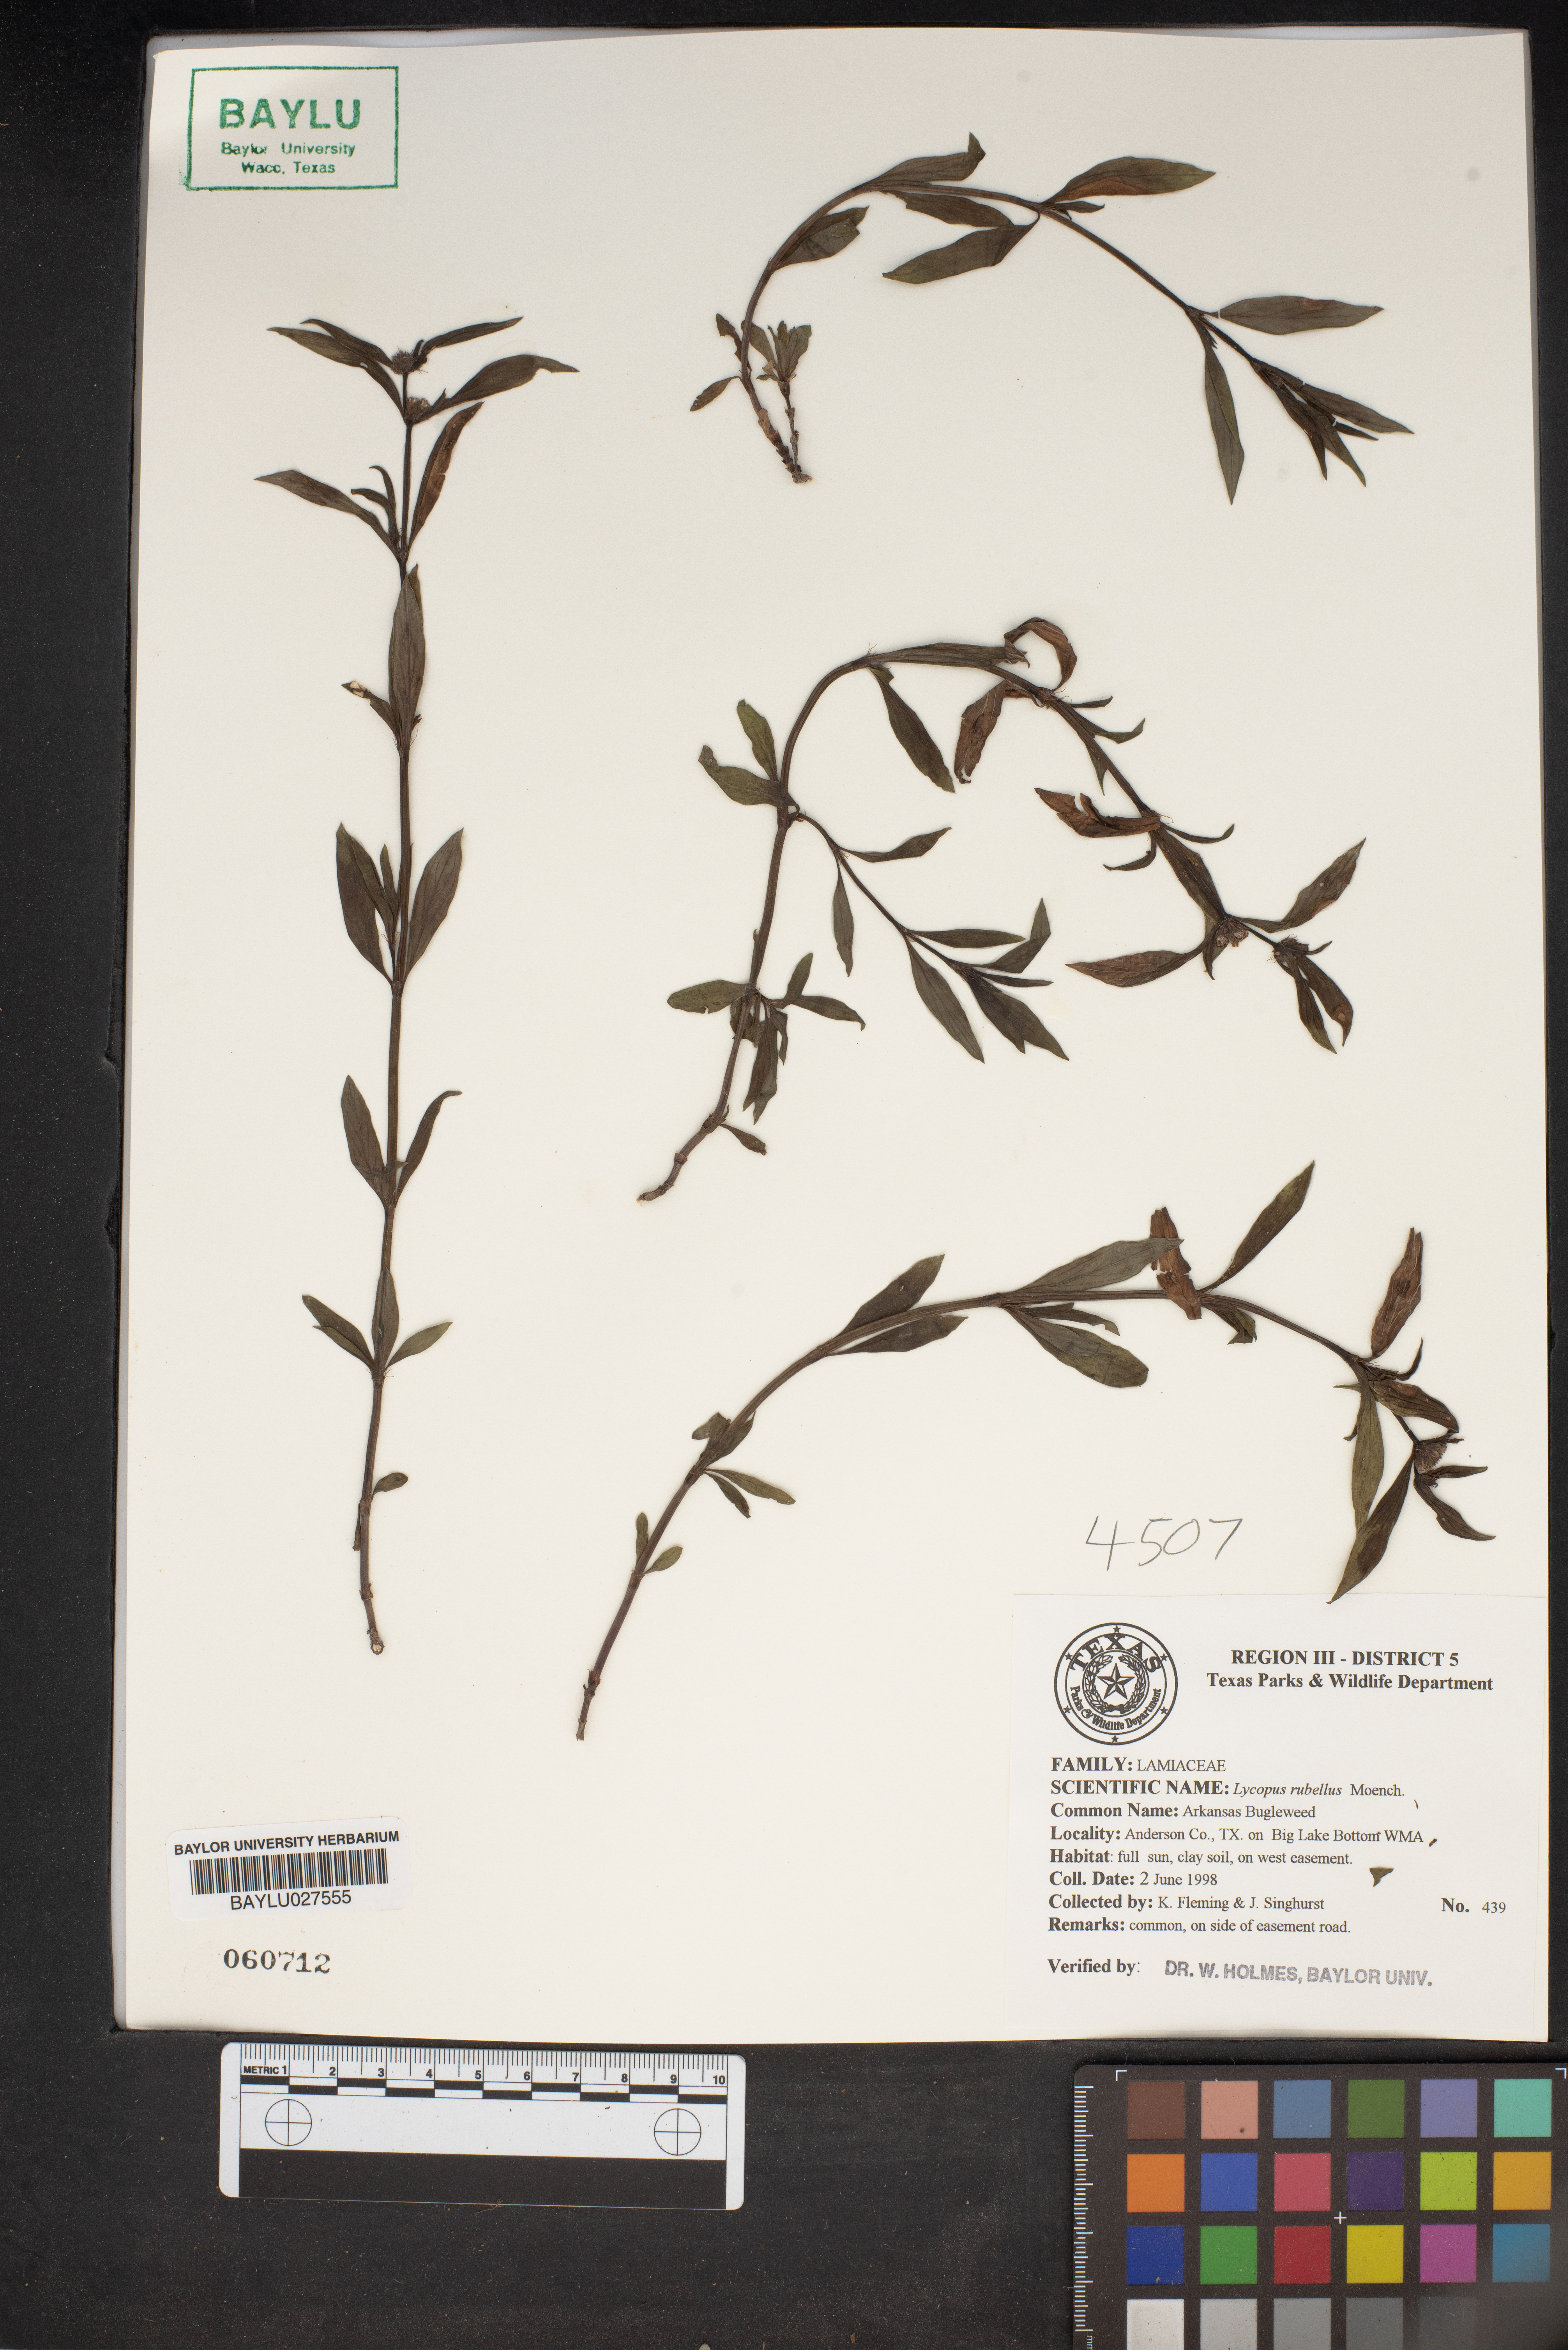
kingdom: Plantae
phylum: Tracheophyta
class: Magnoliopsida
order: Lamiales
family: Lamiaceae
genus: Lycopus
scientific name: Lycopus rubellus
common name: Stalked bugleweed
